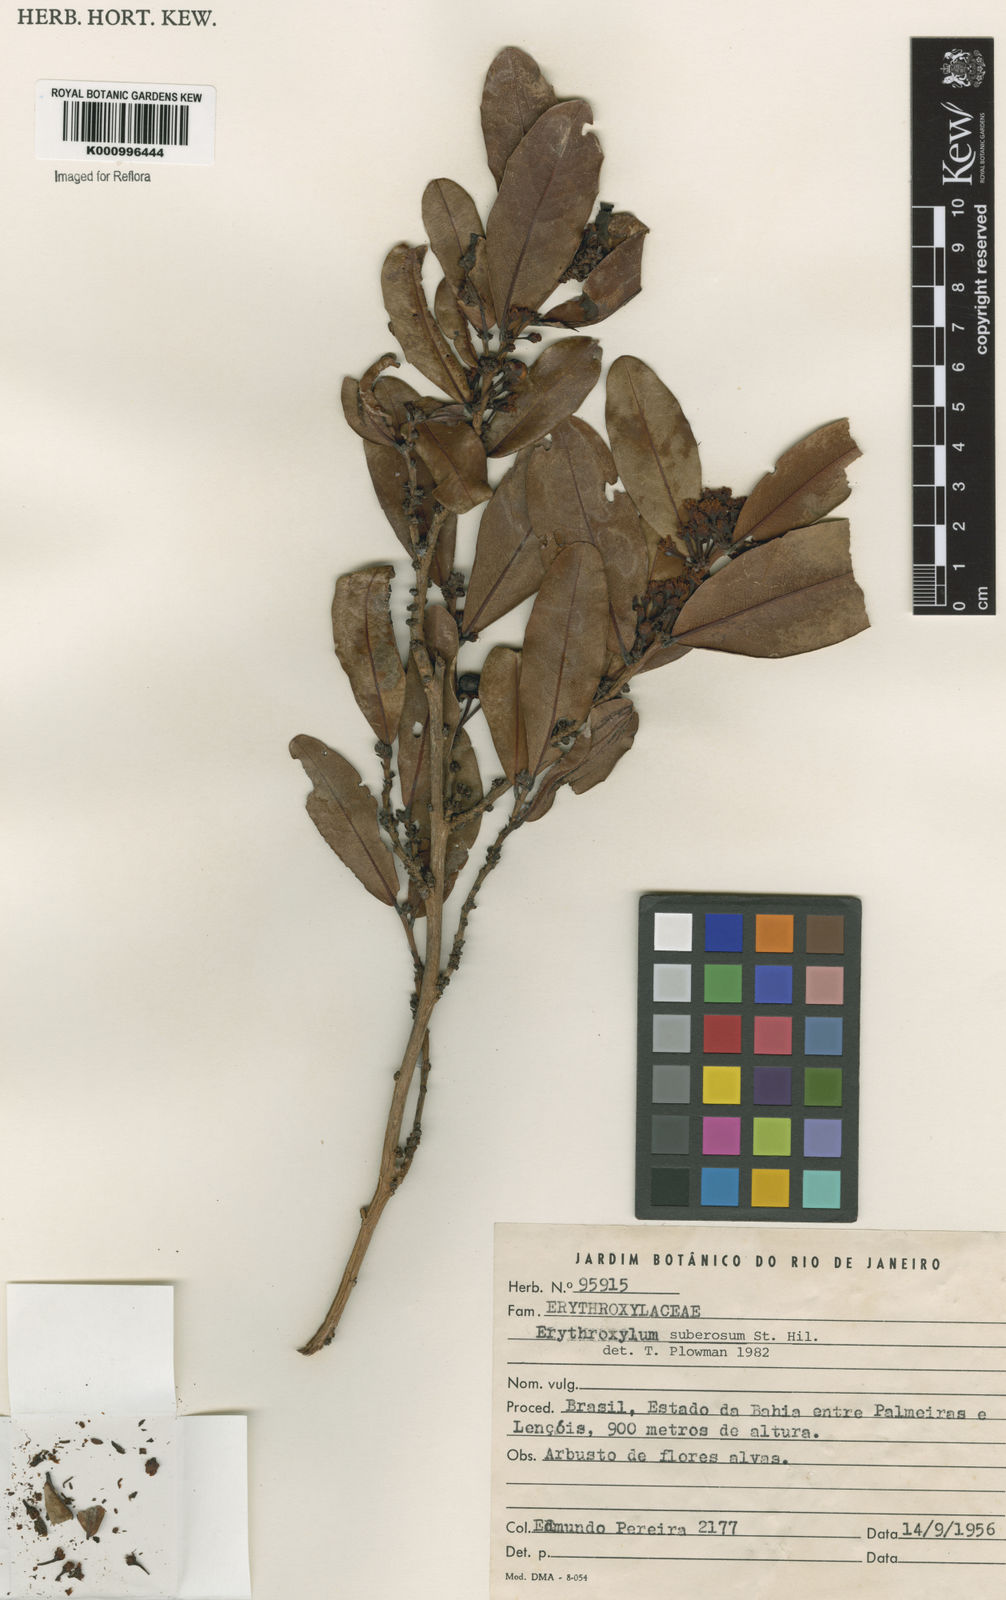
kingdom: Plantae
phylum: Tracheophyta
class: Magnoliopsida
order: Malpighiales
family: Erythroxylaceae
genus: Erythroxylum
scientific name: Erythroxylum suberosum
